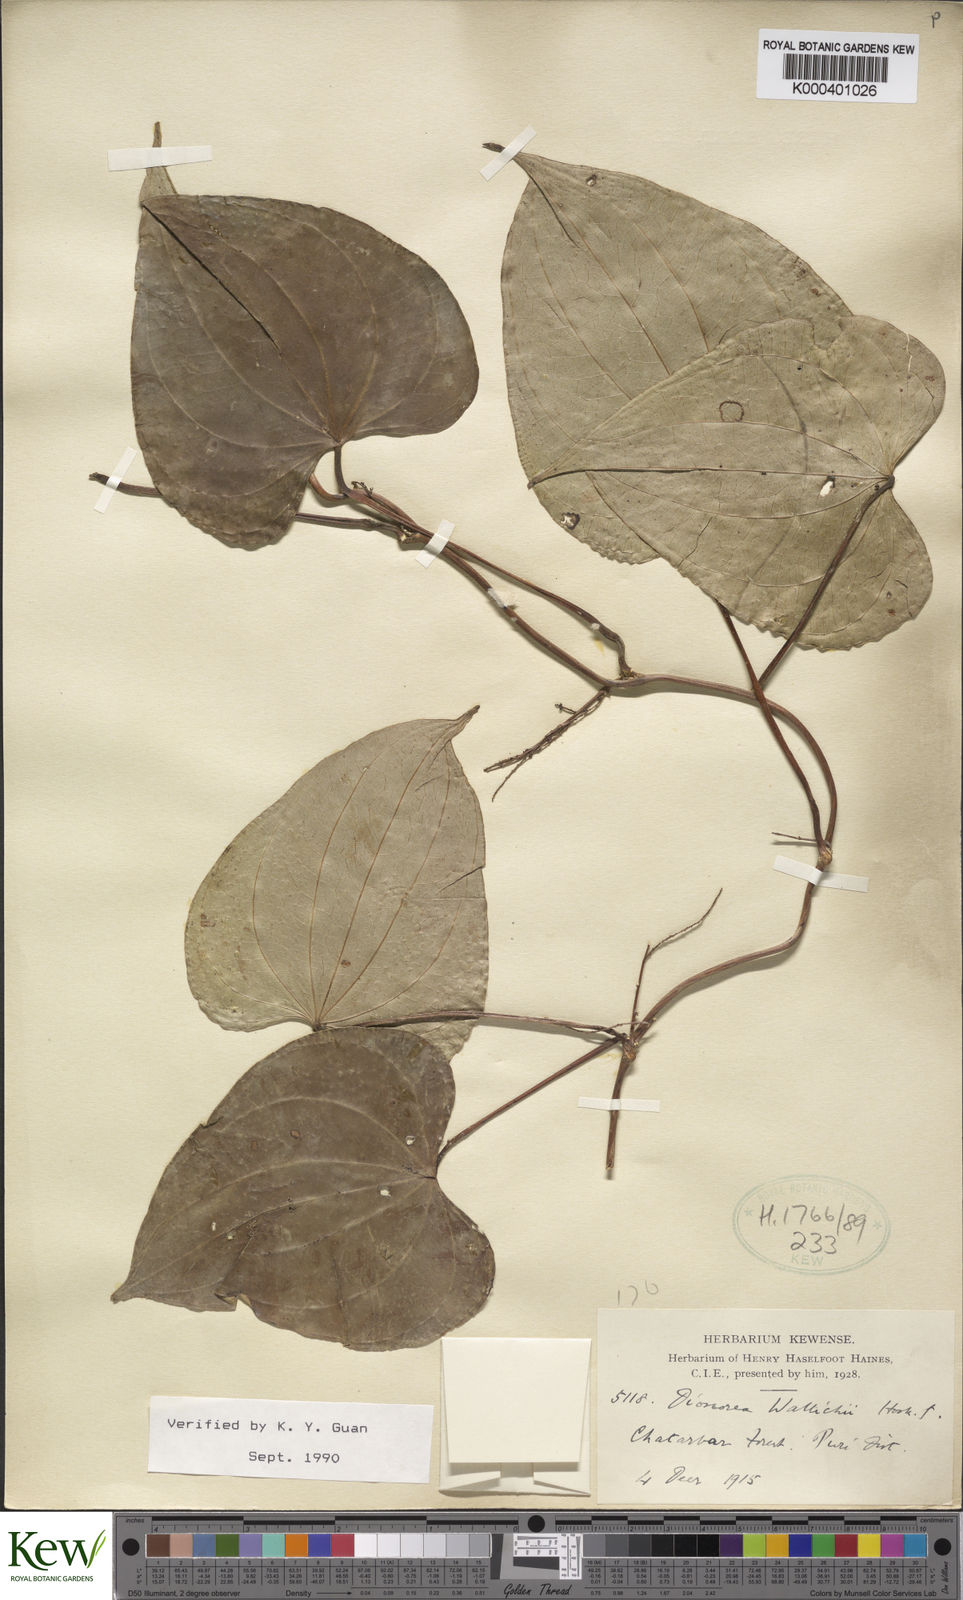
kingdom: Plantae
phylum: Tracheophyta
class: Liliopsida
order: Dioscoreales
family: Dioscoreaceae
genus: Dioscorea
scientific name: Dioscorea wallichii
